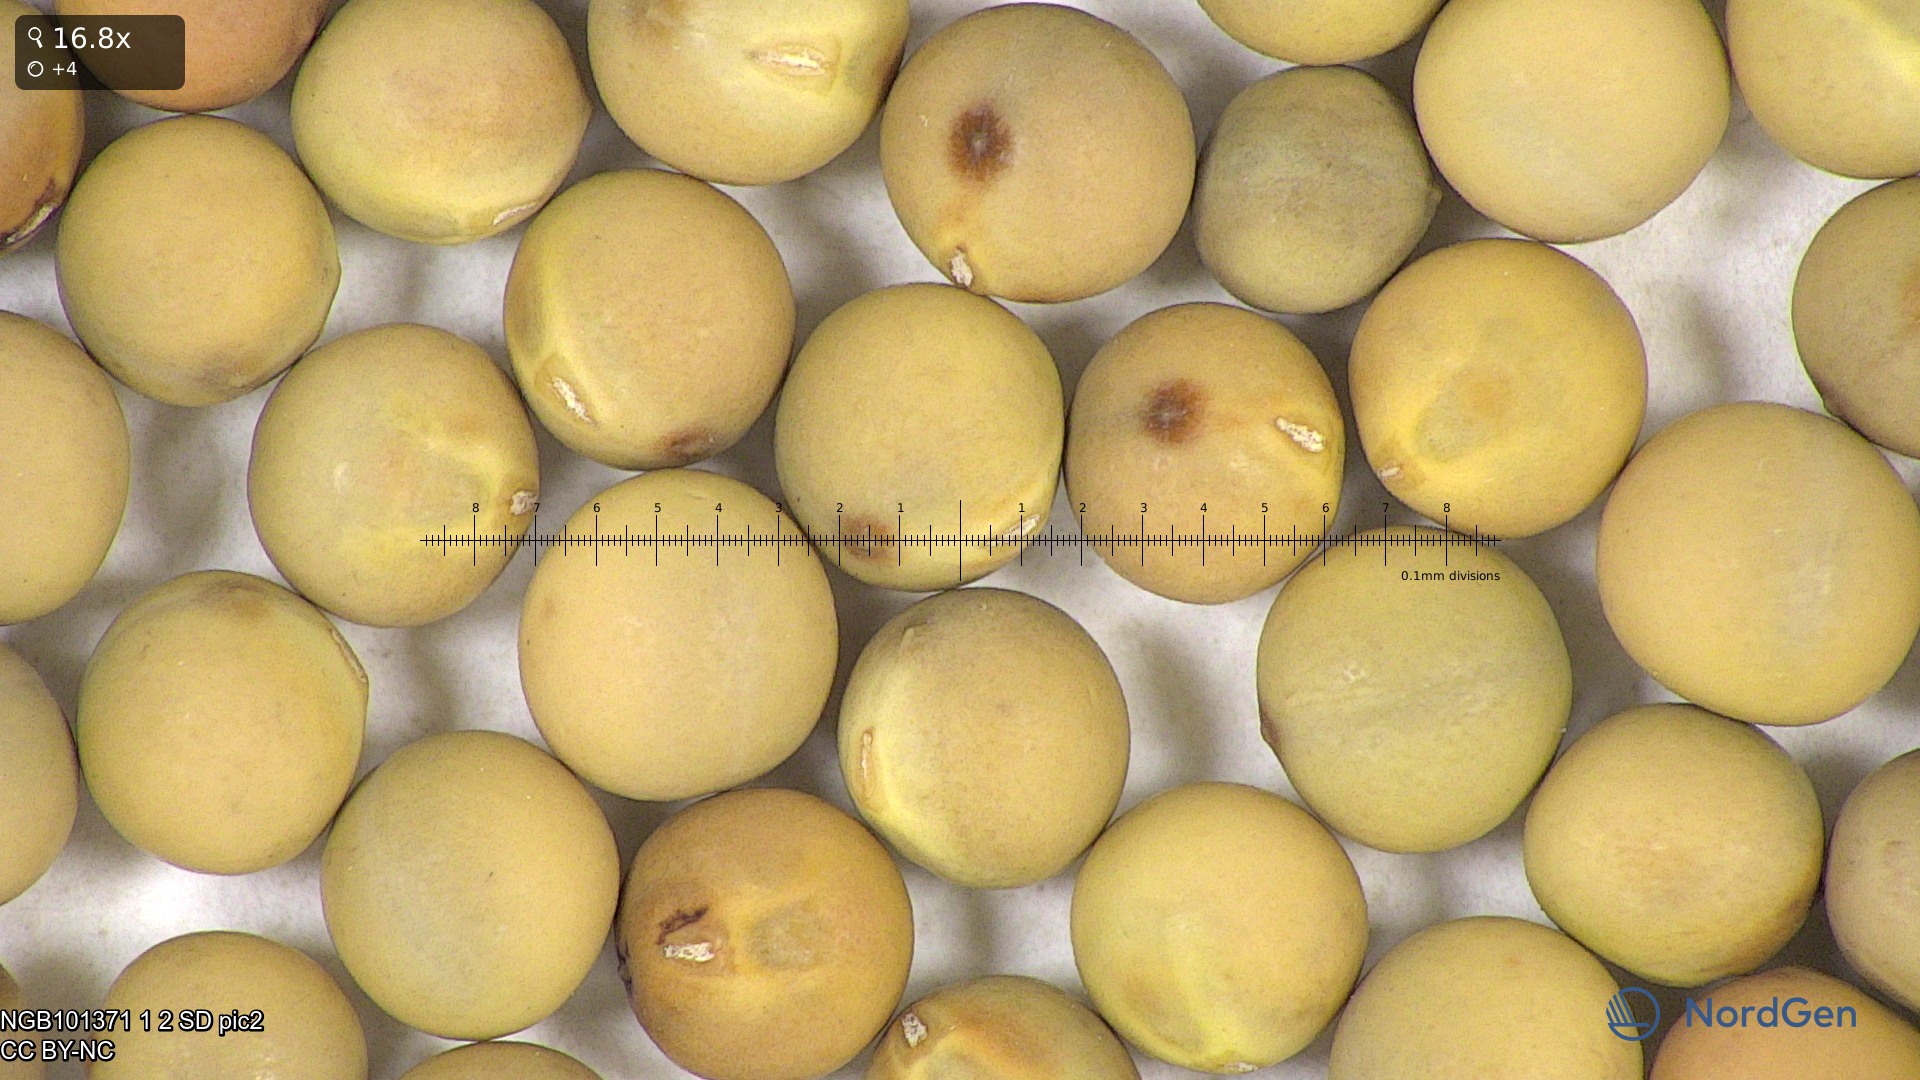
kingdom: Plantae
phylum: Tracheophyta
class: Magnoliopsida
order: Fabales
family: Fabaceae
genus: Lathyrus
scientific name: Lathyrus oleraceus
